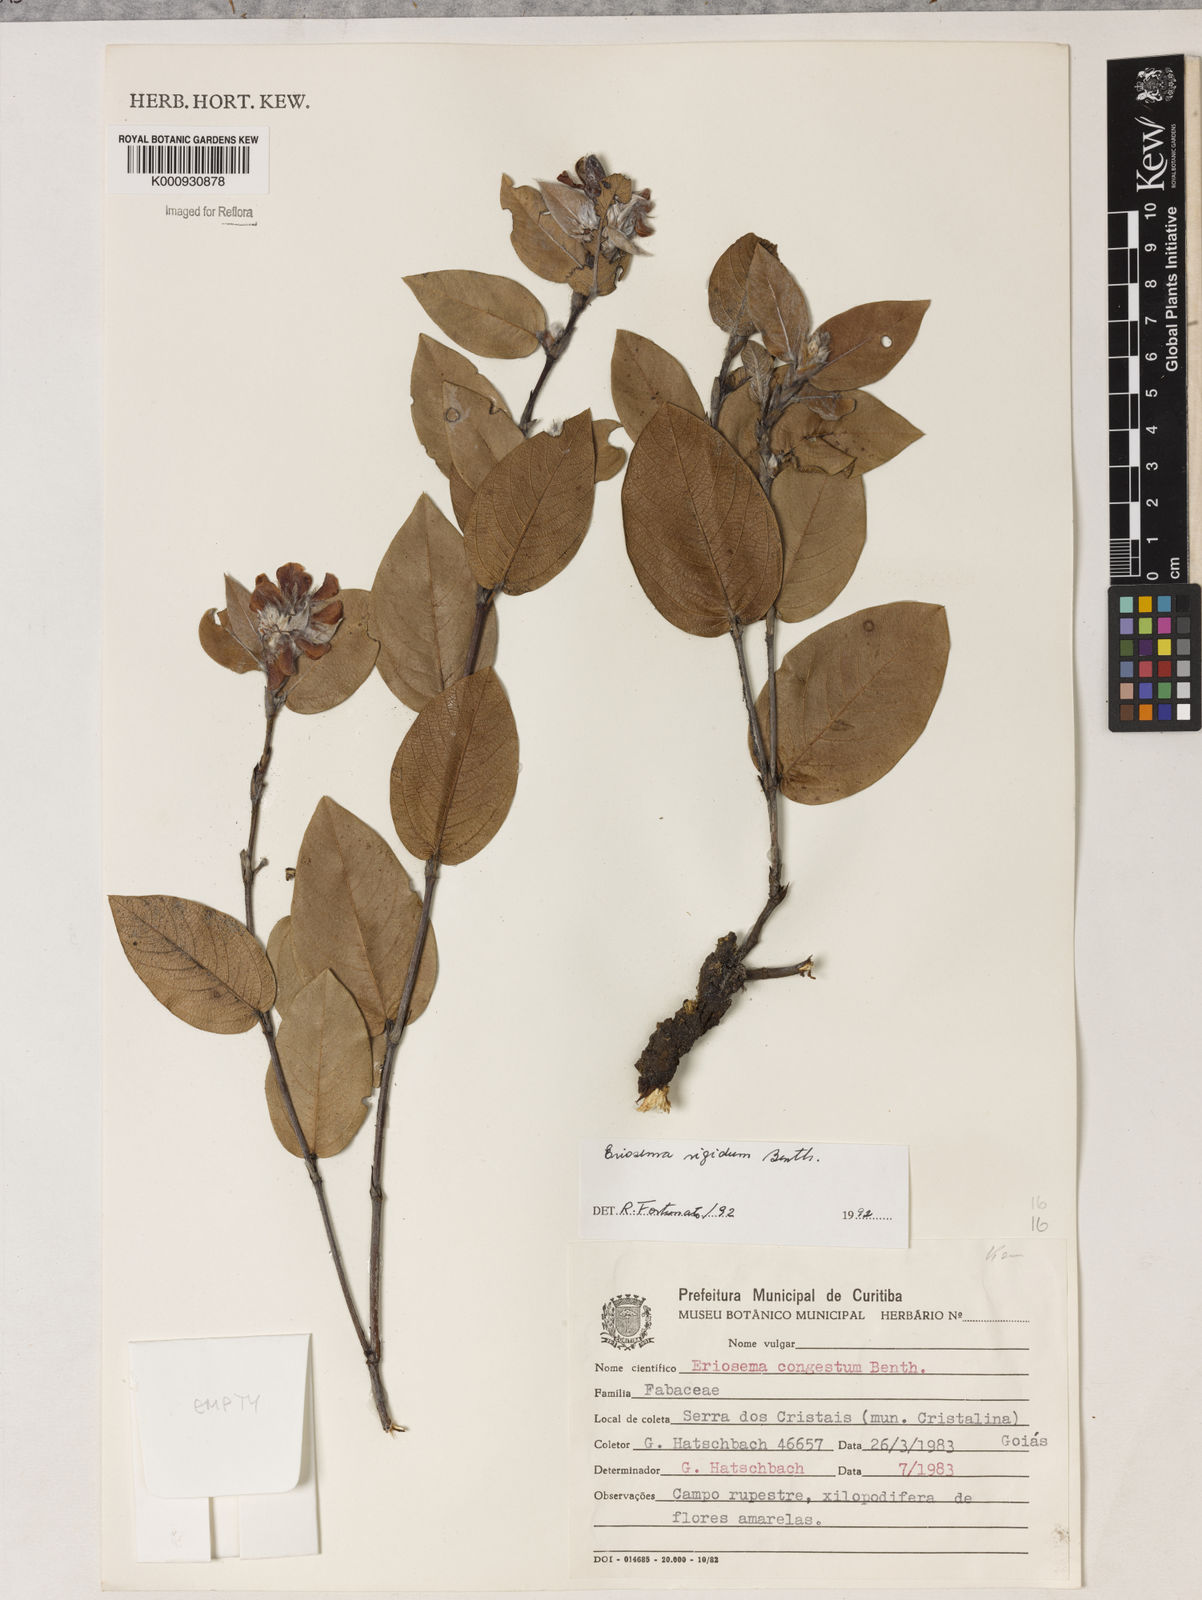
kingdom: Plantae
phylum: Tracheophyta
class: Magnoliopsida
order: Fabales
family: Fabaceae
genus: Eriosema
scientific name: Eriosema rigidum
